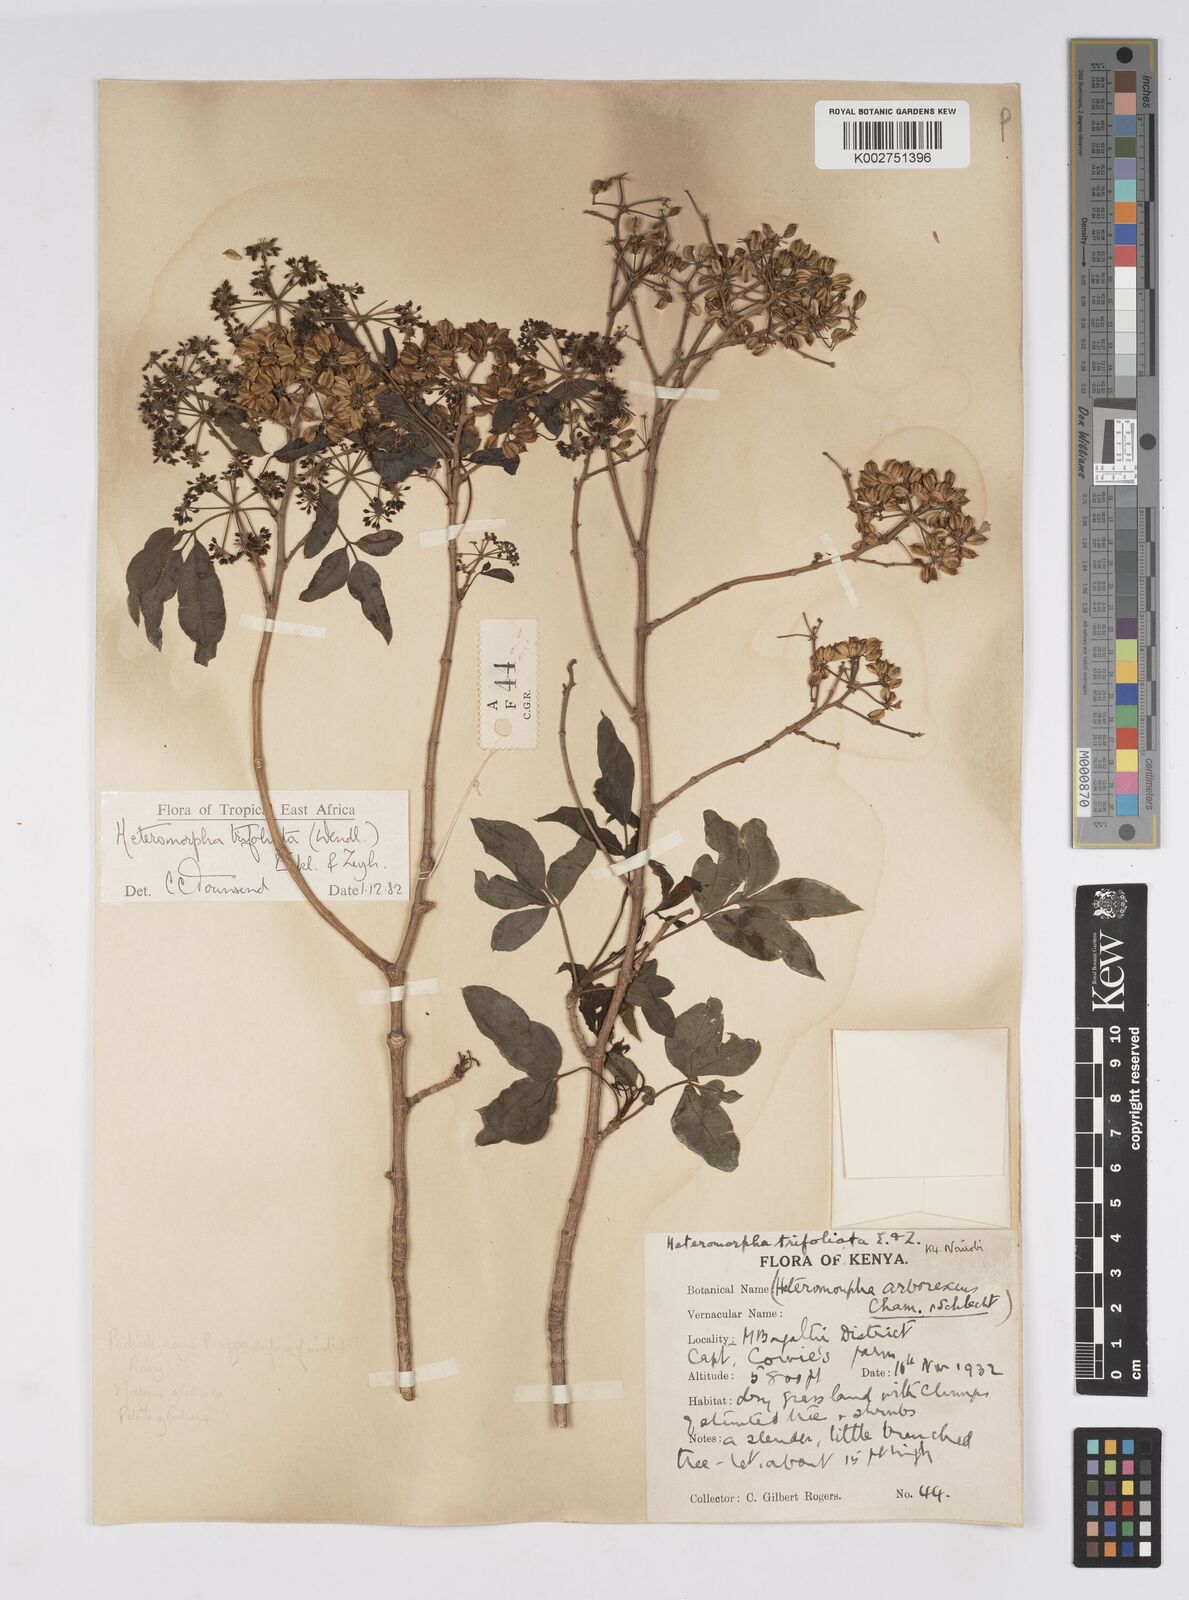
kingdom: Plantae
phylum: Tracheophyta
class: Magnoliopsida
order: Apiales
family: Apiaceae
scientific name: Apiaceae
